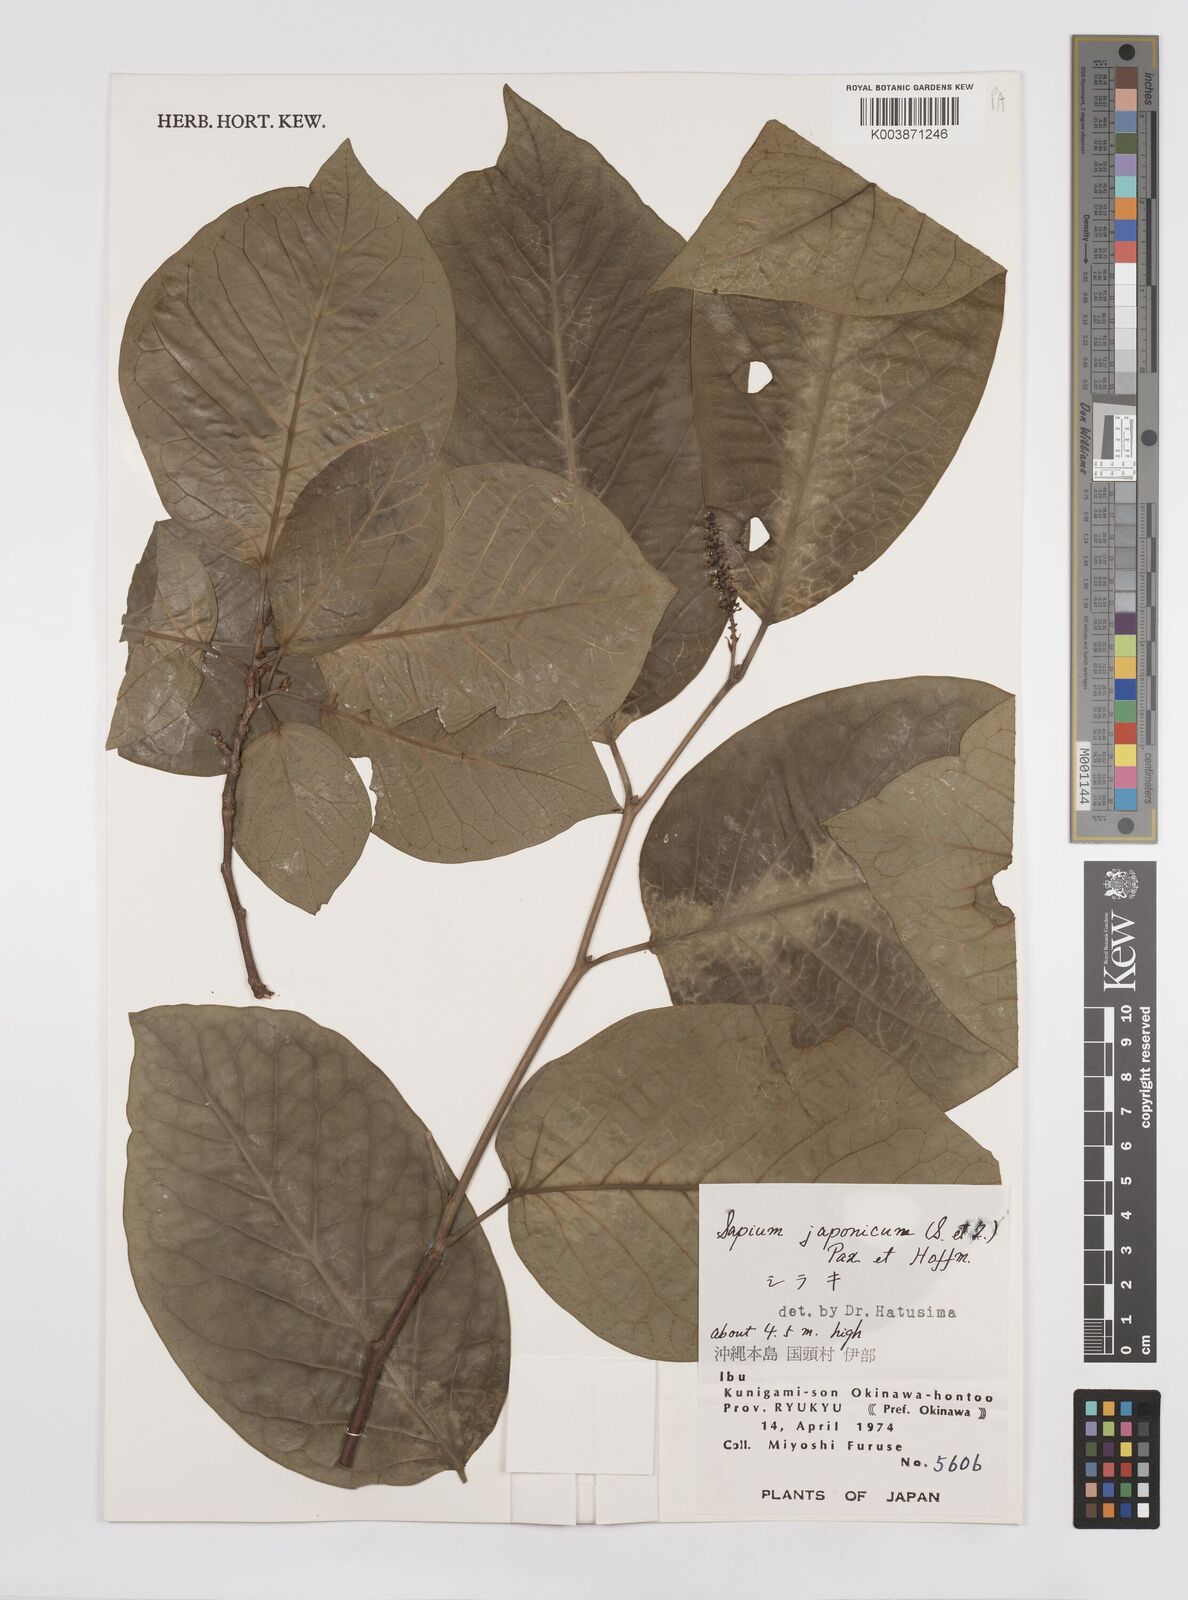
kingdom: Plantae
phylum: Tracheophyta
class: Magnoliopsida
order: Malpighiales
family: Euphorbiaceae
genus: Neoshirakia
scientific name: Neoshirakia japonica
